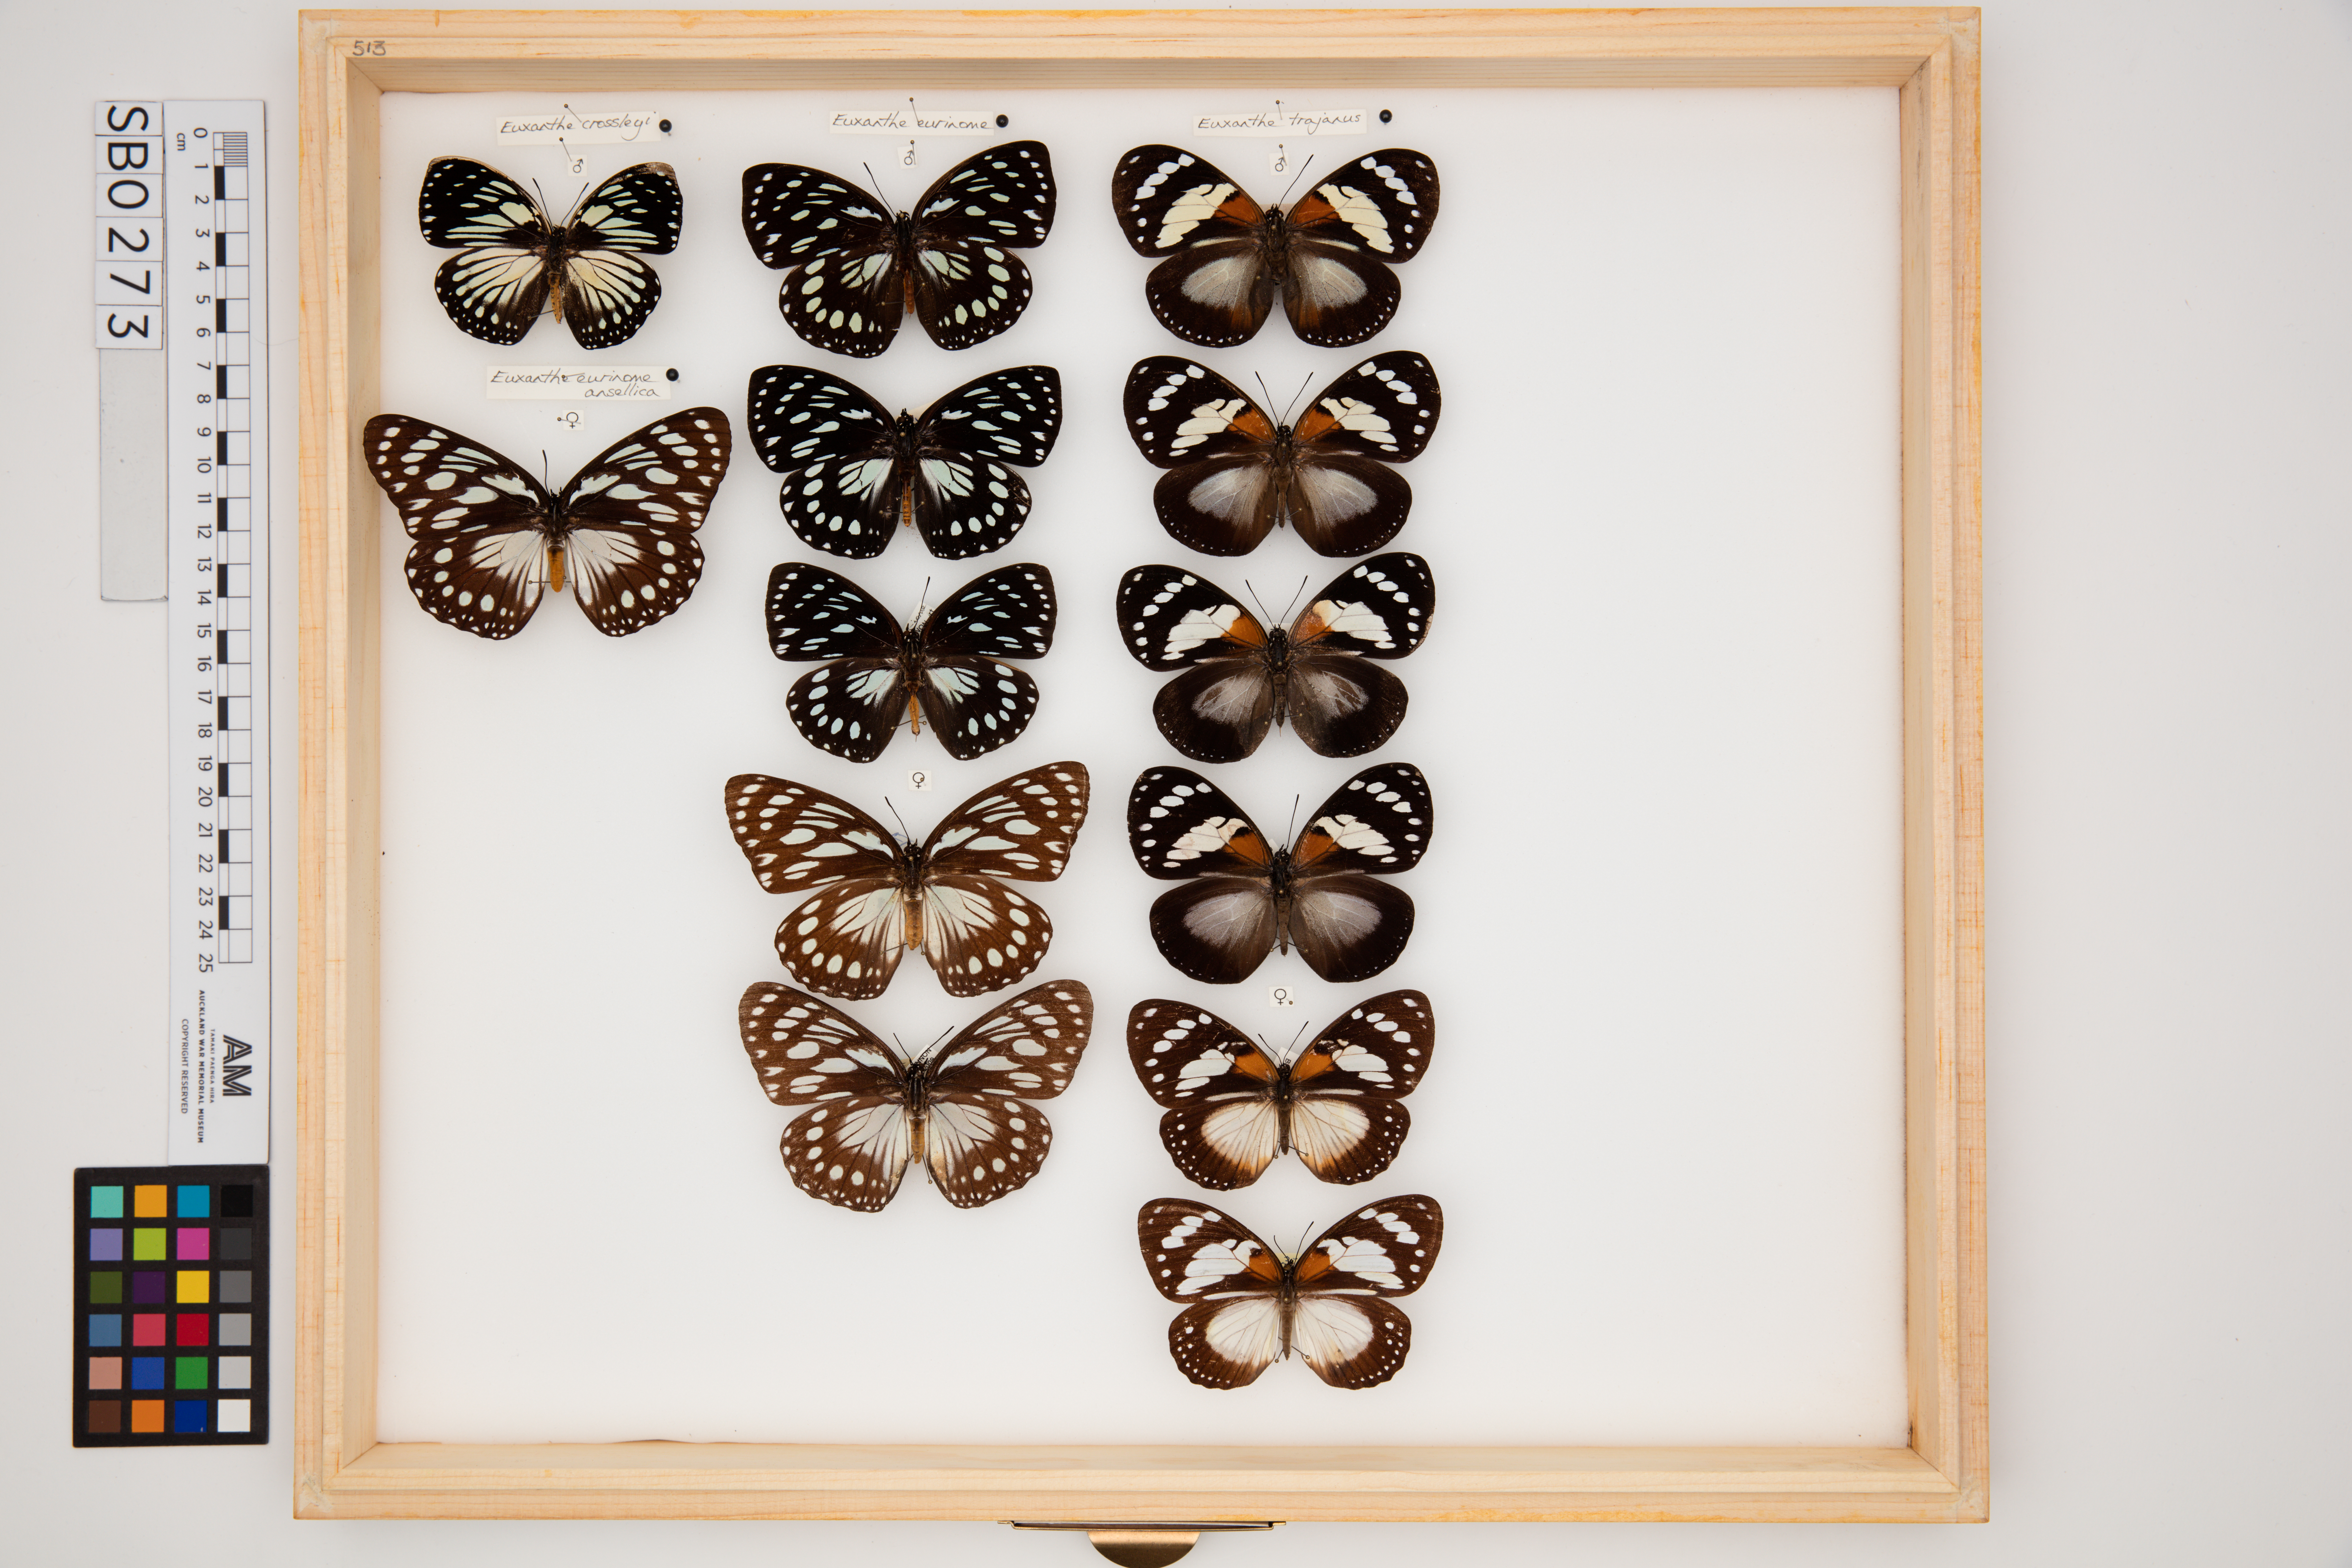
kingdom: Animalia
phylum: Arthropoda
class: Insecta
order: Lepidoptera
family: Nymphalidae
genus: Euxanthe
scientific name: Euxanthe
